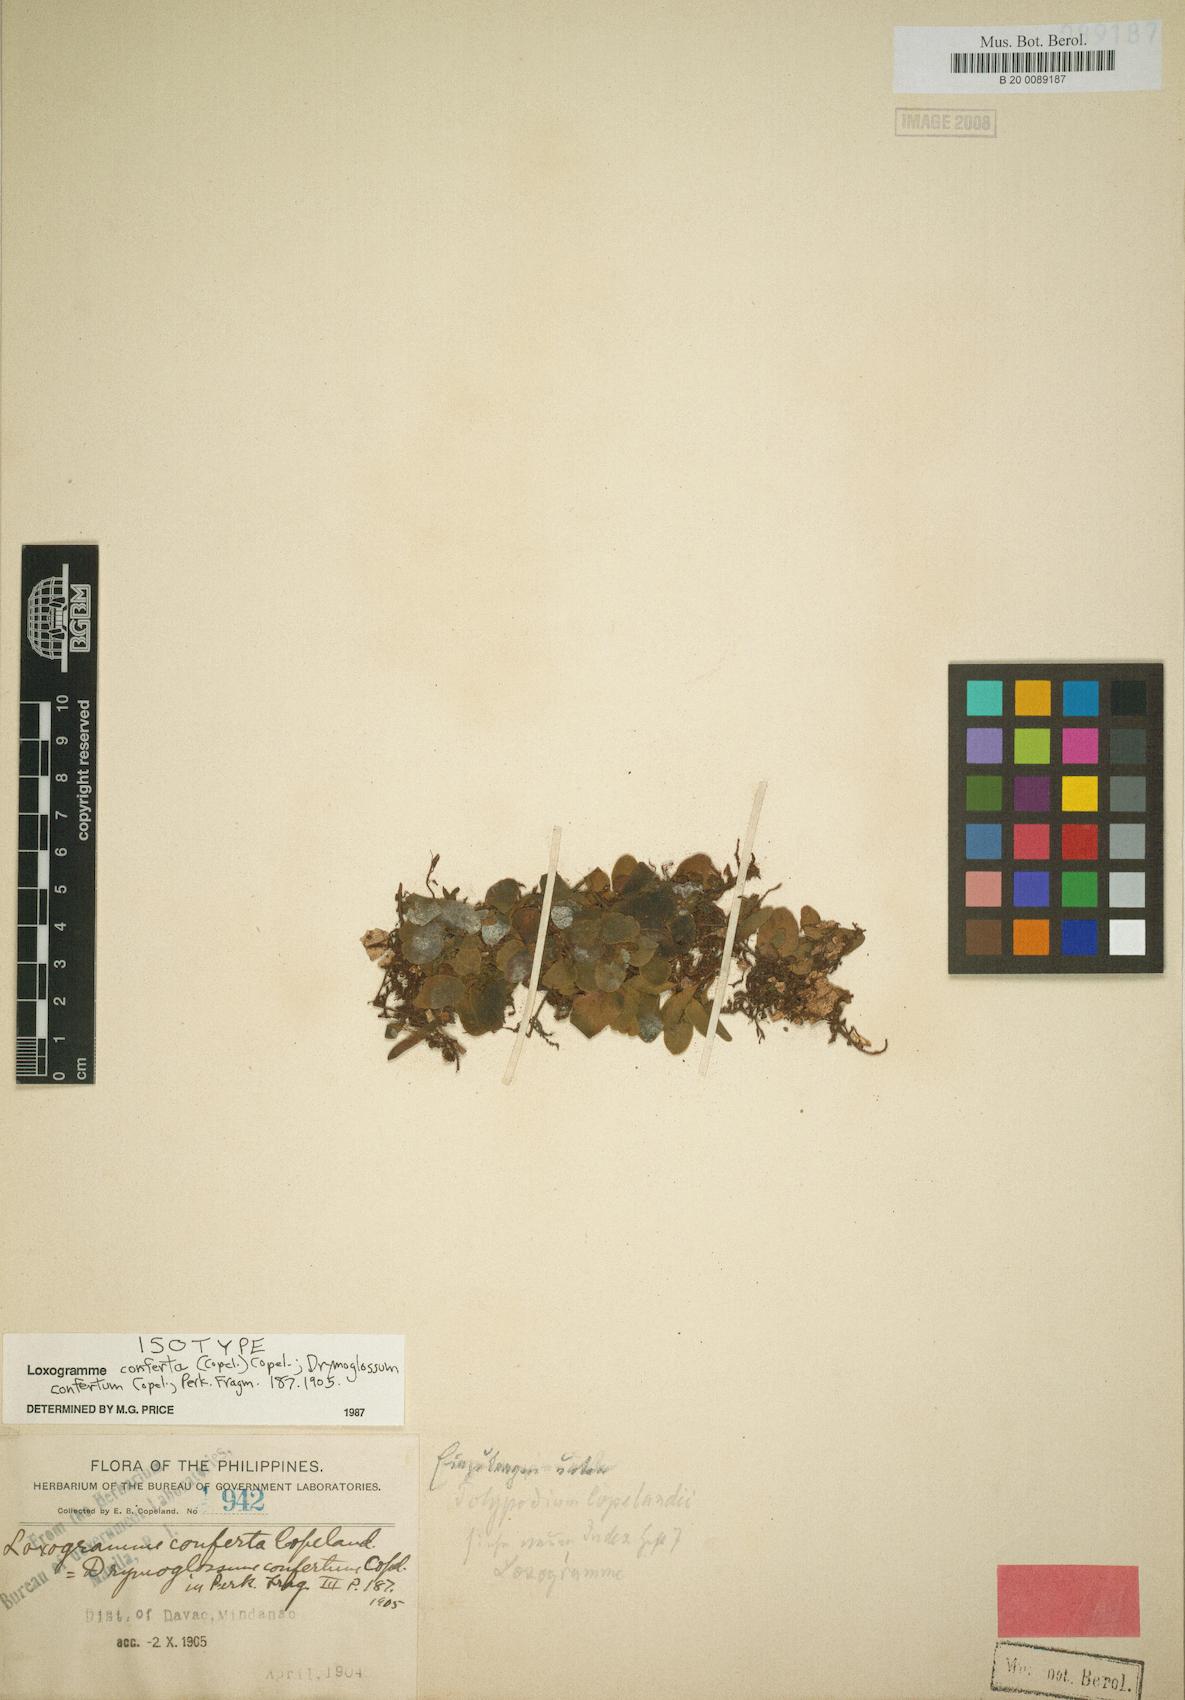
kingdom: Plantae
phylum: Tracheophyta
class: Polypodiopsida
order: Polypodiales
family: Polypodiaceae
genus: Loxogramme
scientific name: Loxogramme conferta
